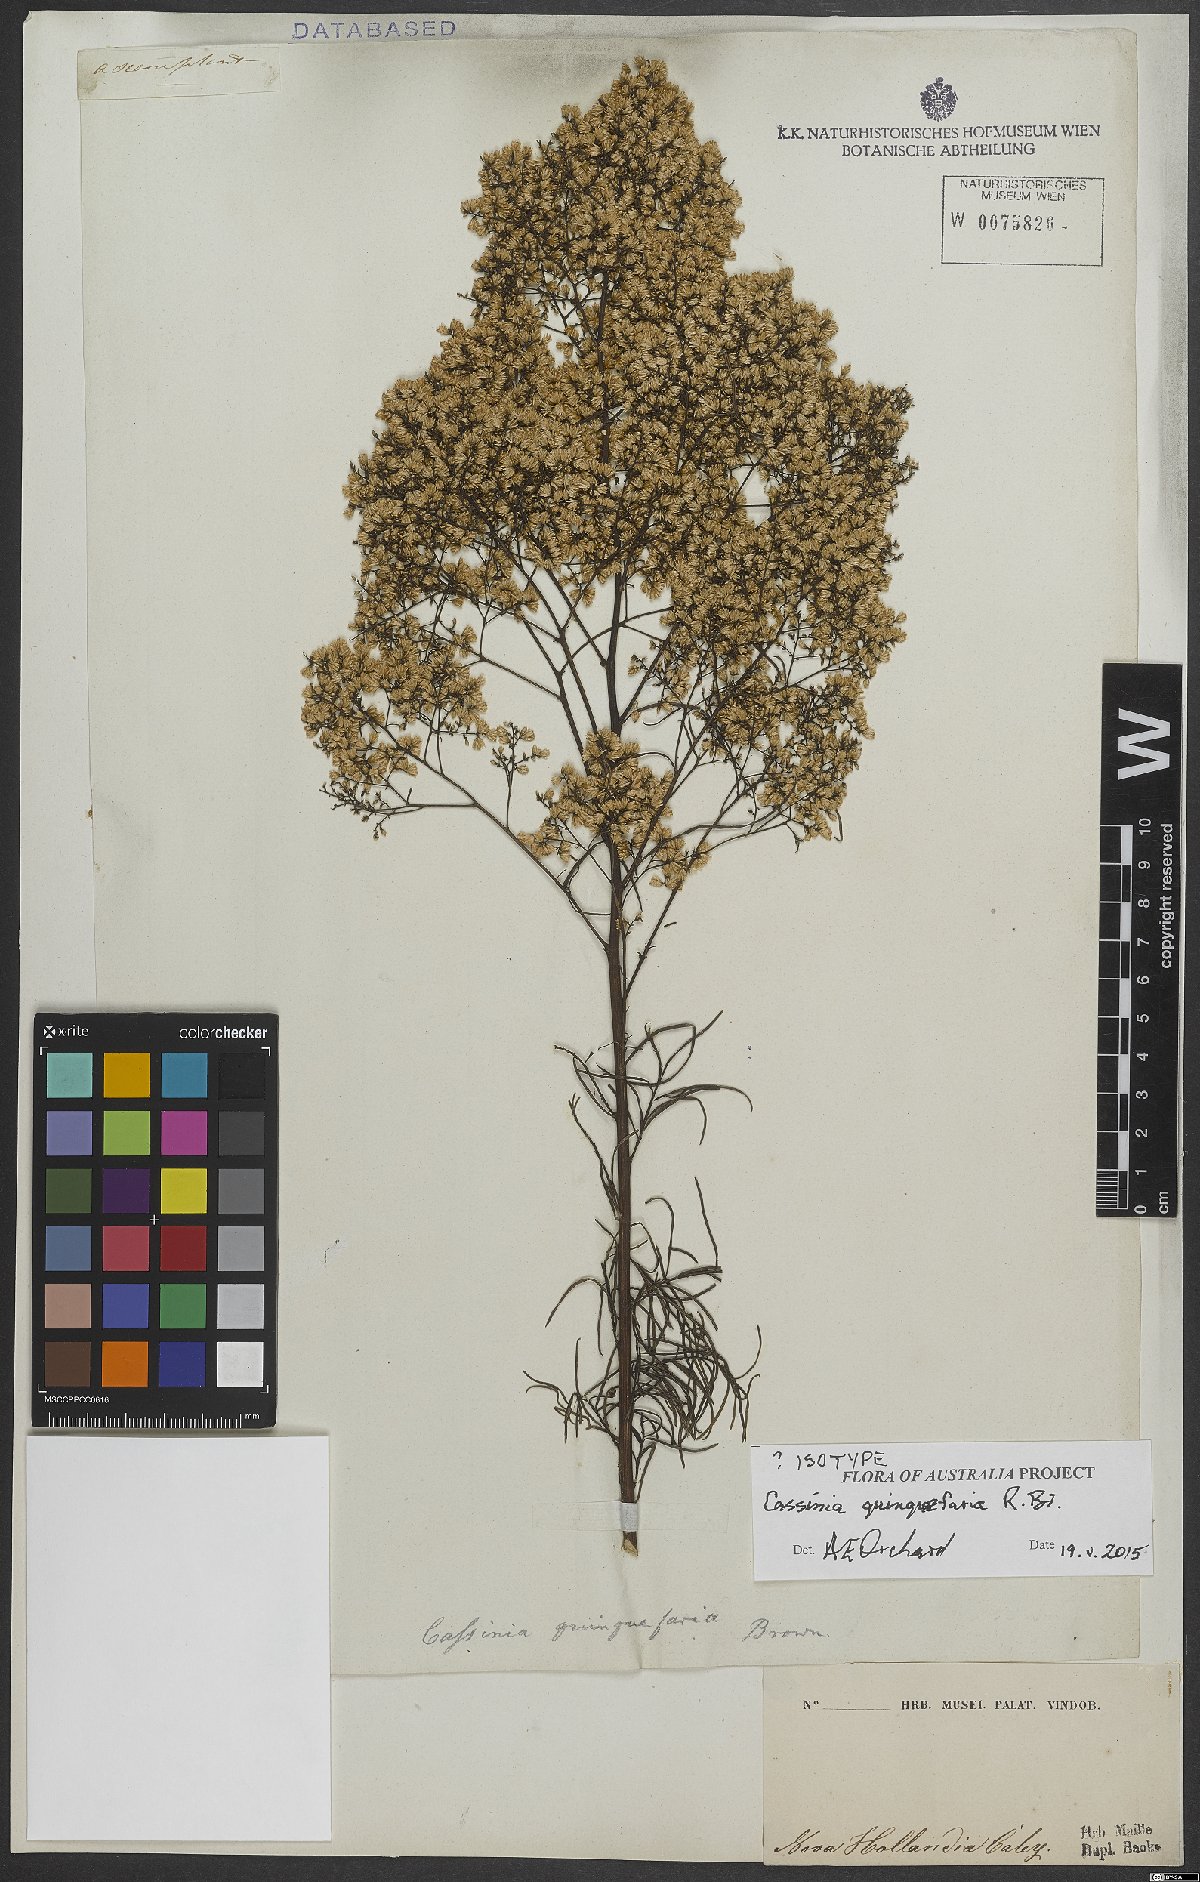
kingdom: Plantae
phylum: Tracheophyta
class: Magnoliopsida
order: Asterales
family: Asteraceae
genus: Cassinia
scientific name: Cassinia quinquefaria
